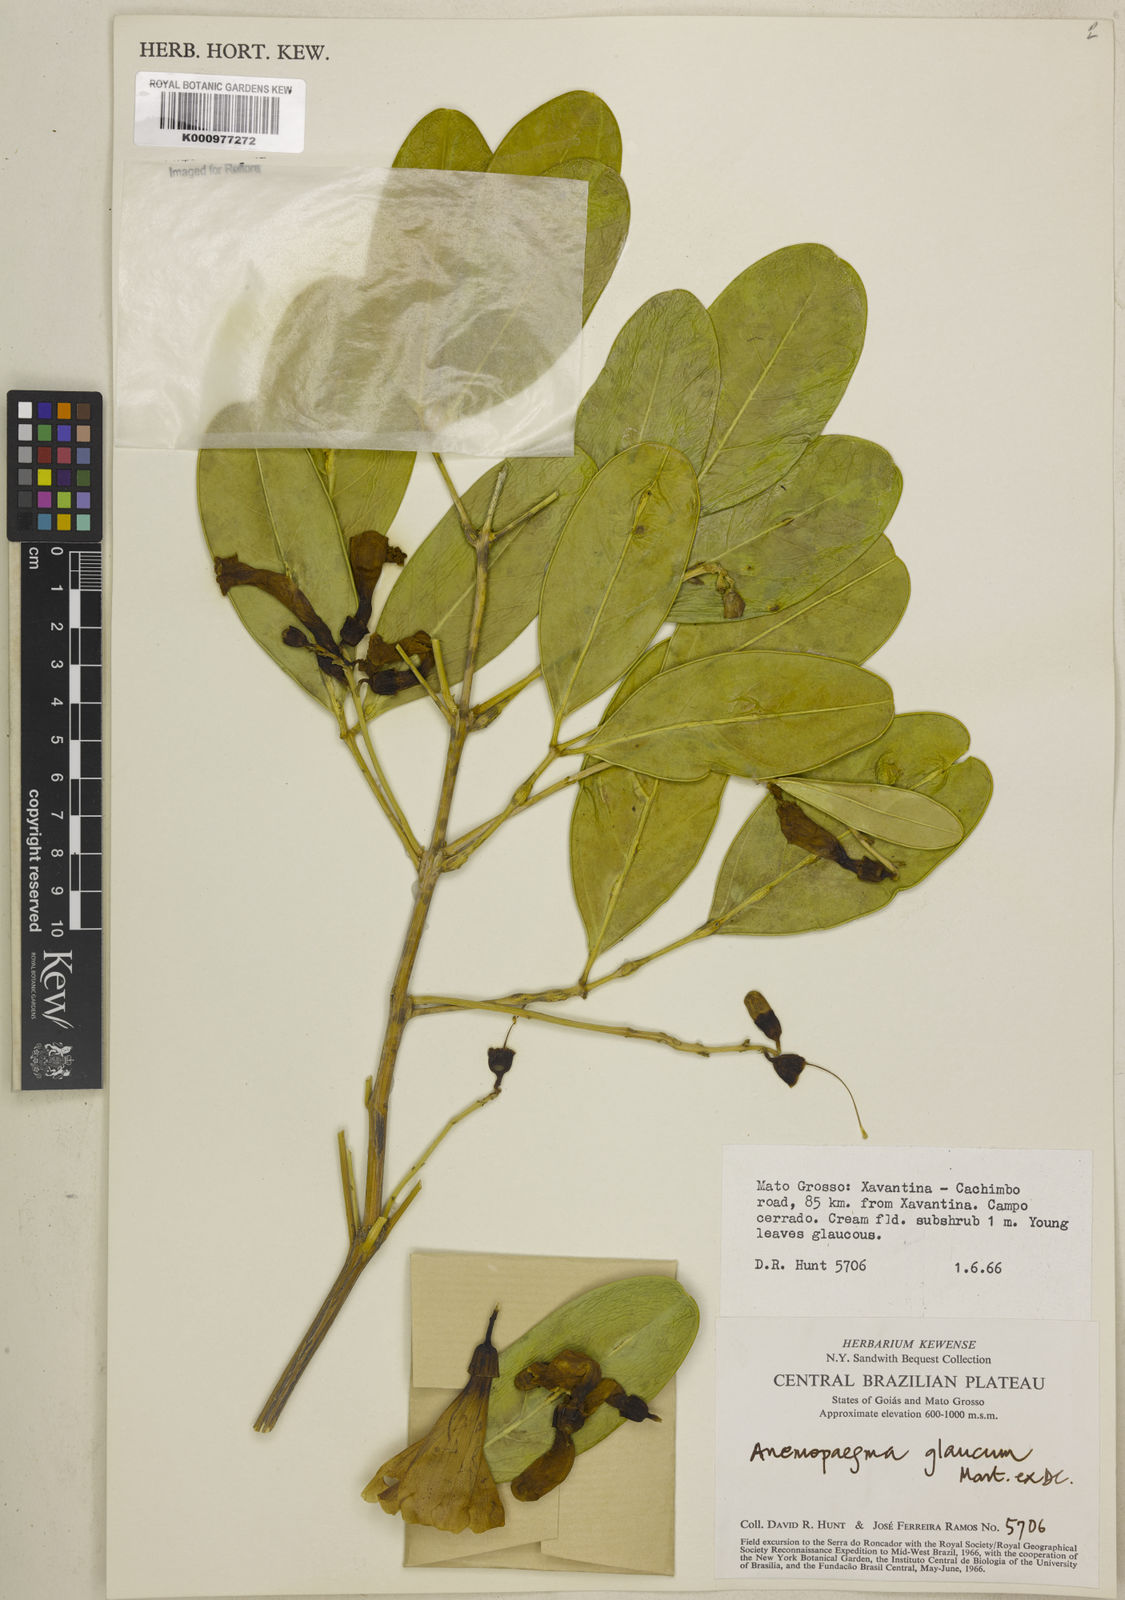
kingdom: Plantae
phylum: Tracheophyta
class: Magnoliopsida
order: Lamiales
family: Bignoniaceae
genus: Anemopaegma
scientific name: Anemopaegma glaucum
